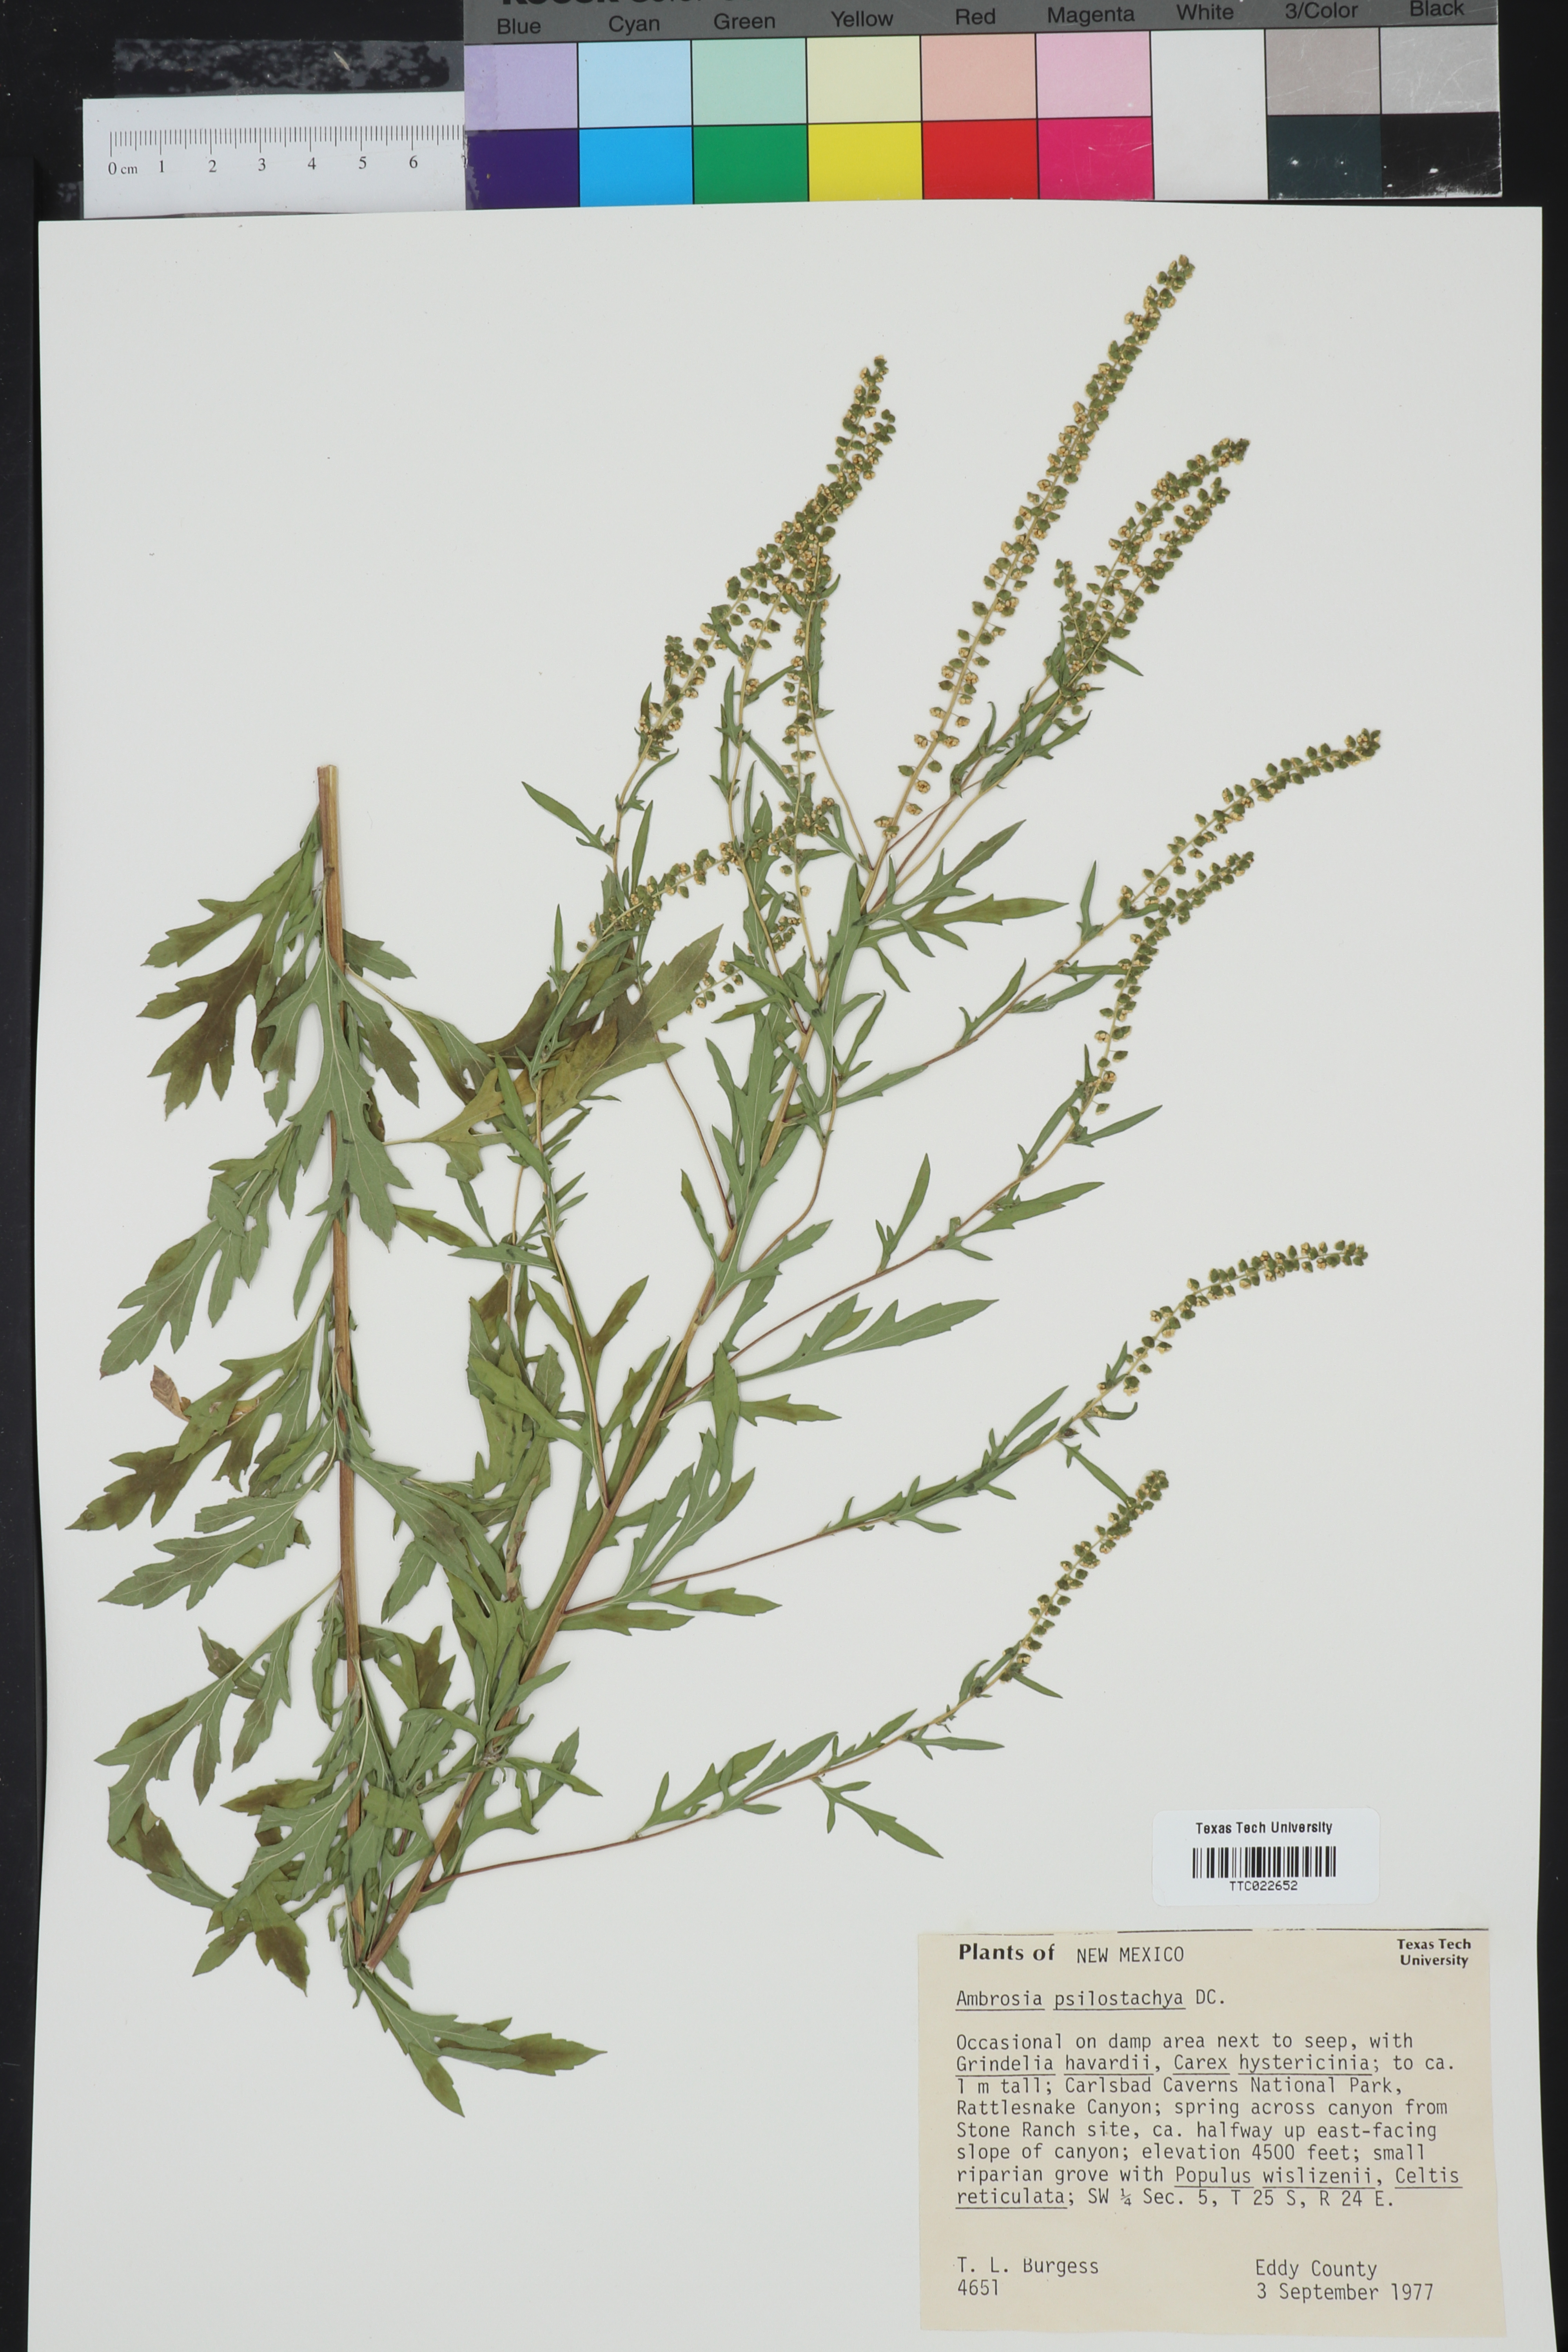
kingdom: Plantae
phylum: Tracheophyta
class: Magnoliopsida
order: Asterales
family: Asteraceae
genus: Ambrosia
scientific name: Ambrosia psilostachya
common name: Perennial ragweed
